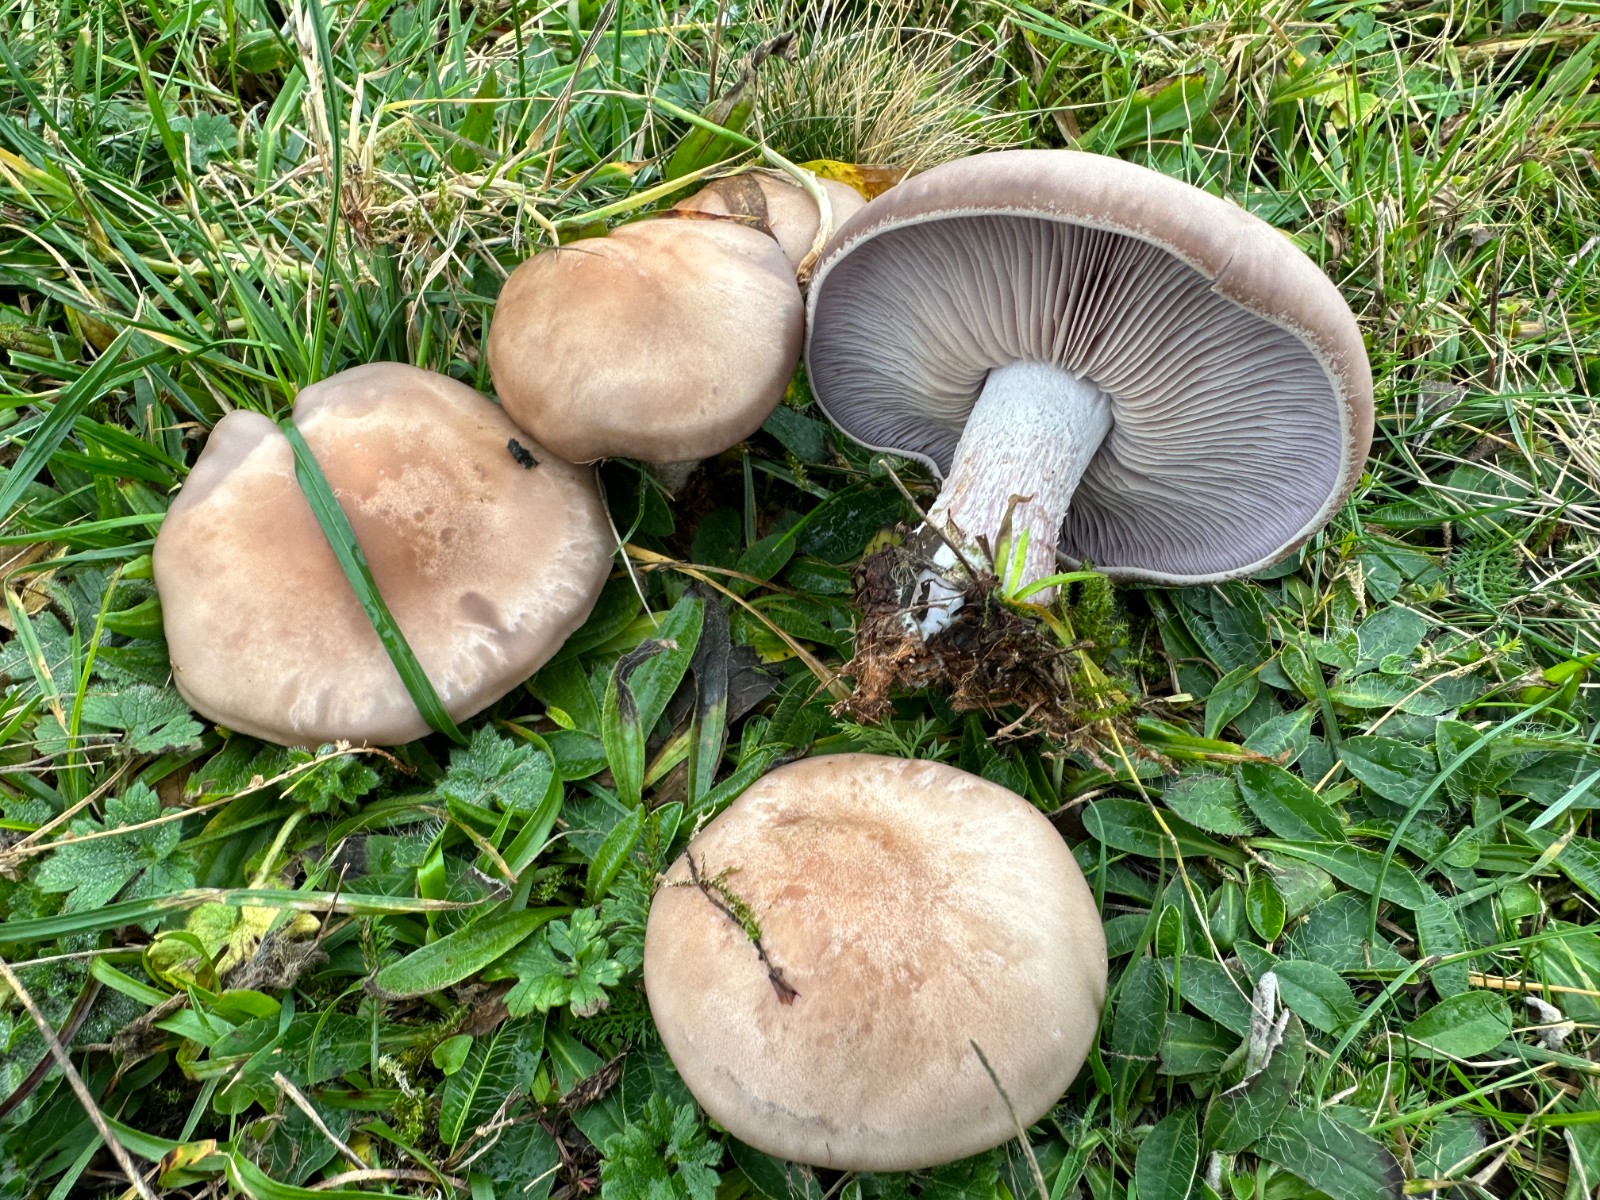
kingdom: Fungi
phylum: Basidiomycota
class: Agaricomycetes
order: Agaricales
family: Tricholomataceae
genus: Lepista
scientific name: Lepista nuda
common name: violet hekseringshat
